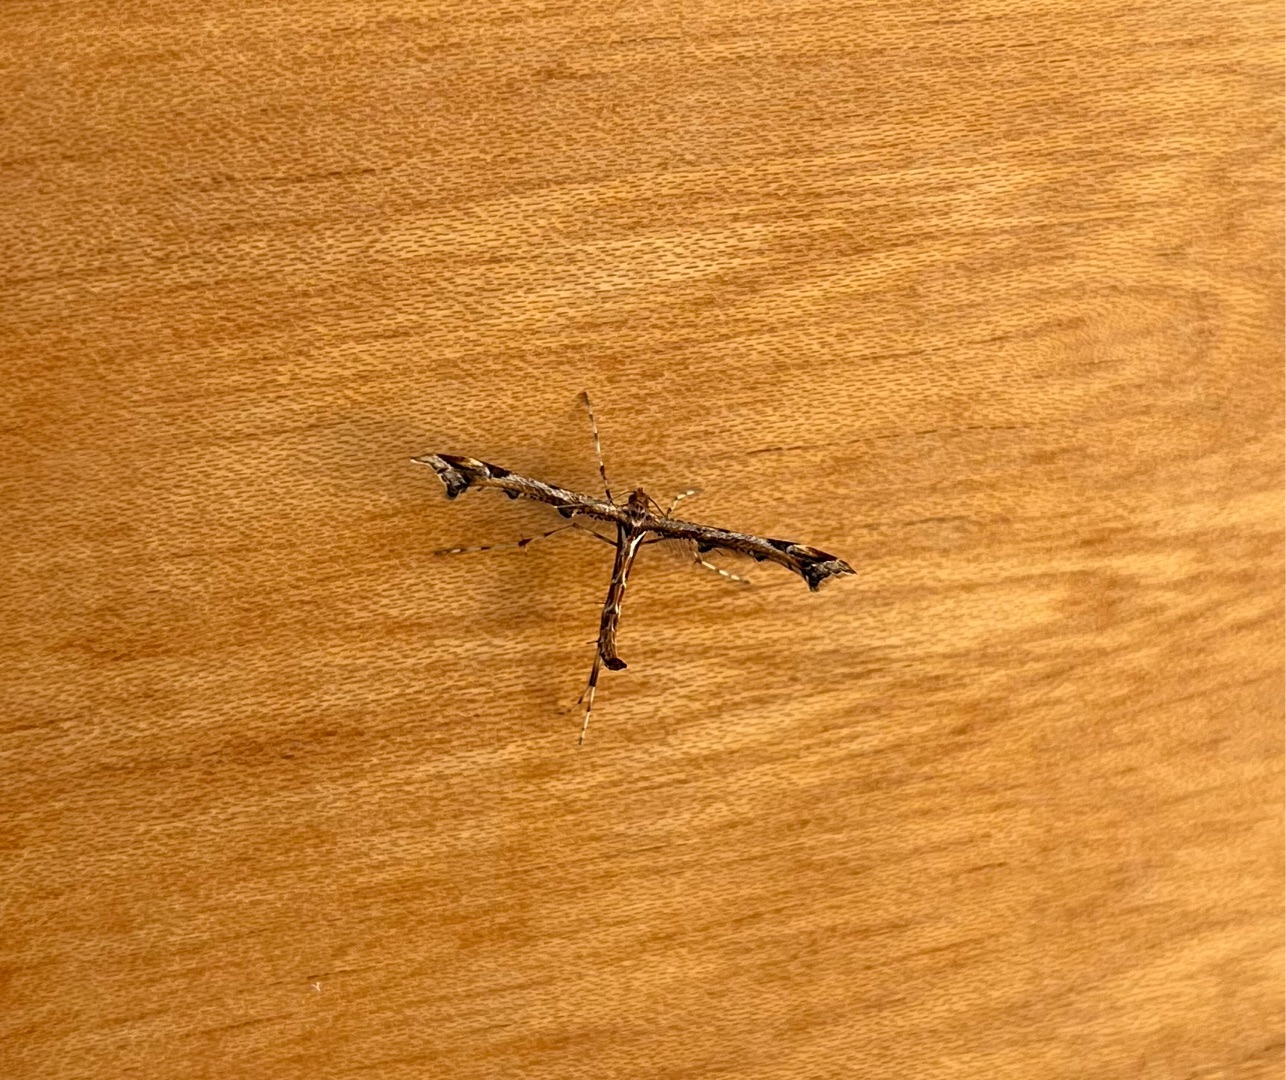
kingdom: Animalia
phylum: Arthropoda
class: Insecta
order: Lepidoptera
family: Pterophoridae
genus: Amblyptilia
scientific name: Amblyptilia acanthadactyla
